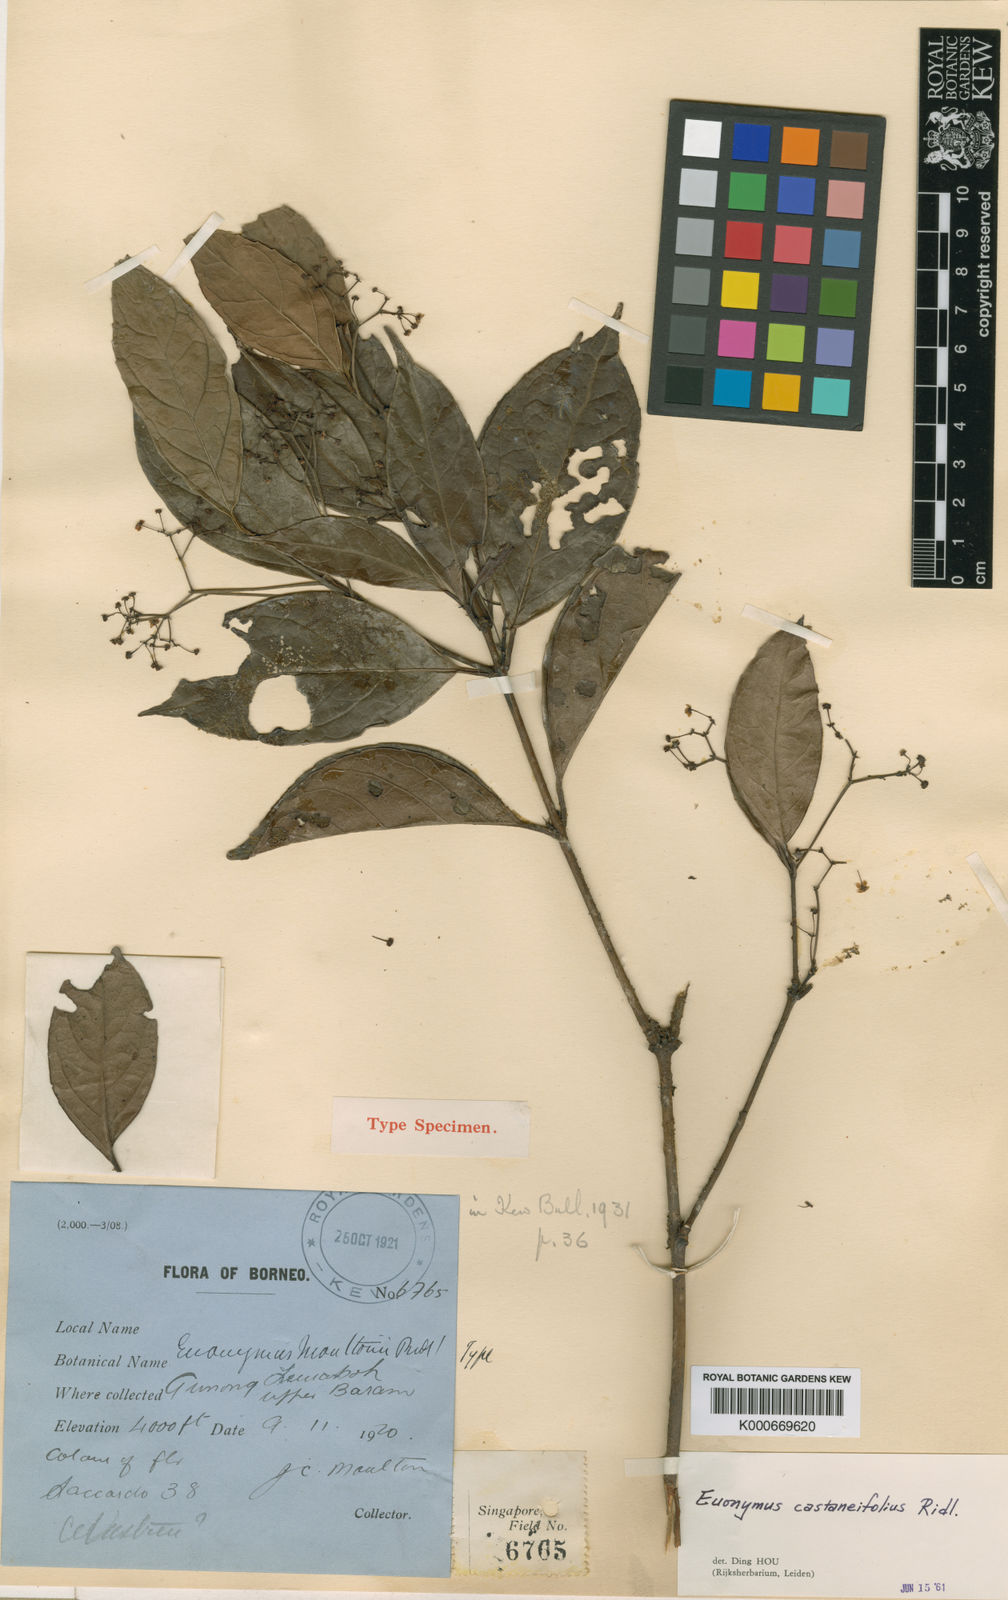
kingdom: Plantae
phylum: Tracheophyta
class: Magnoliopsida
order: Celastrales
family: Celastraceae
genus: Euonymus
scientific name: Euonymus castaneifolius
